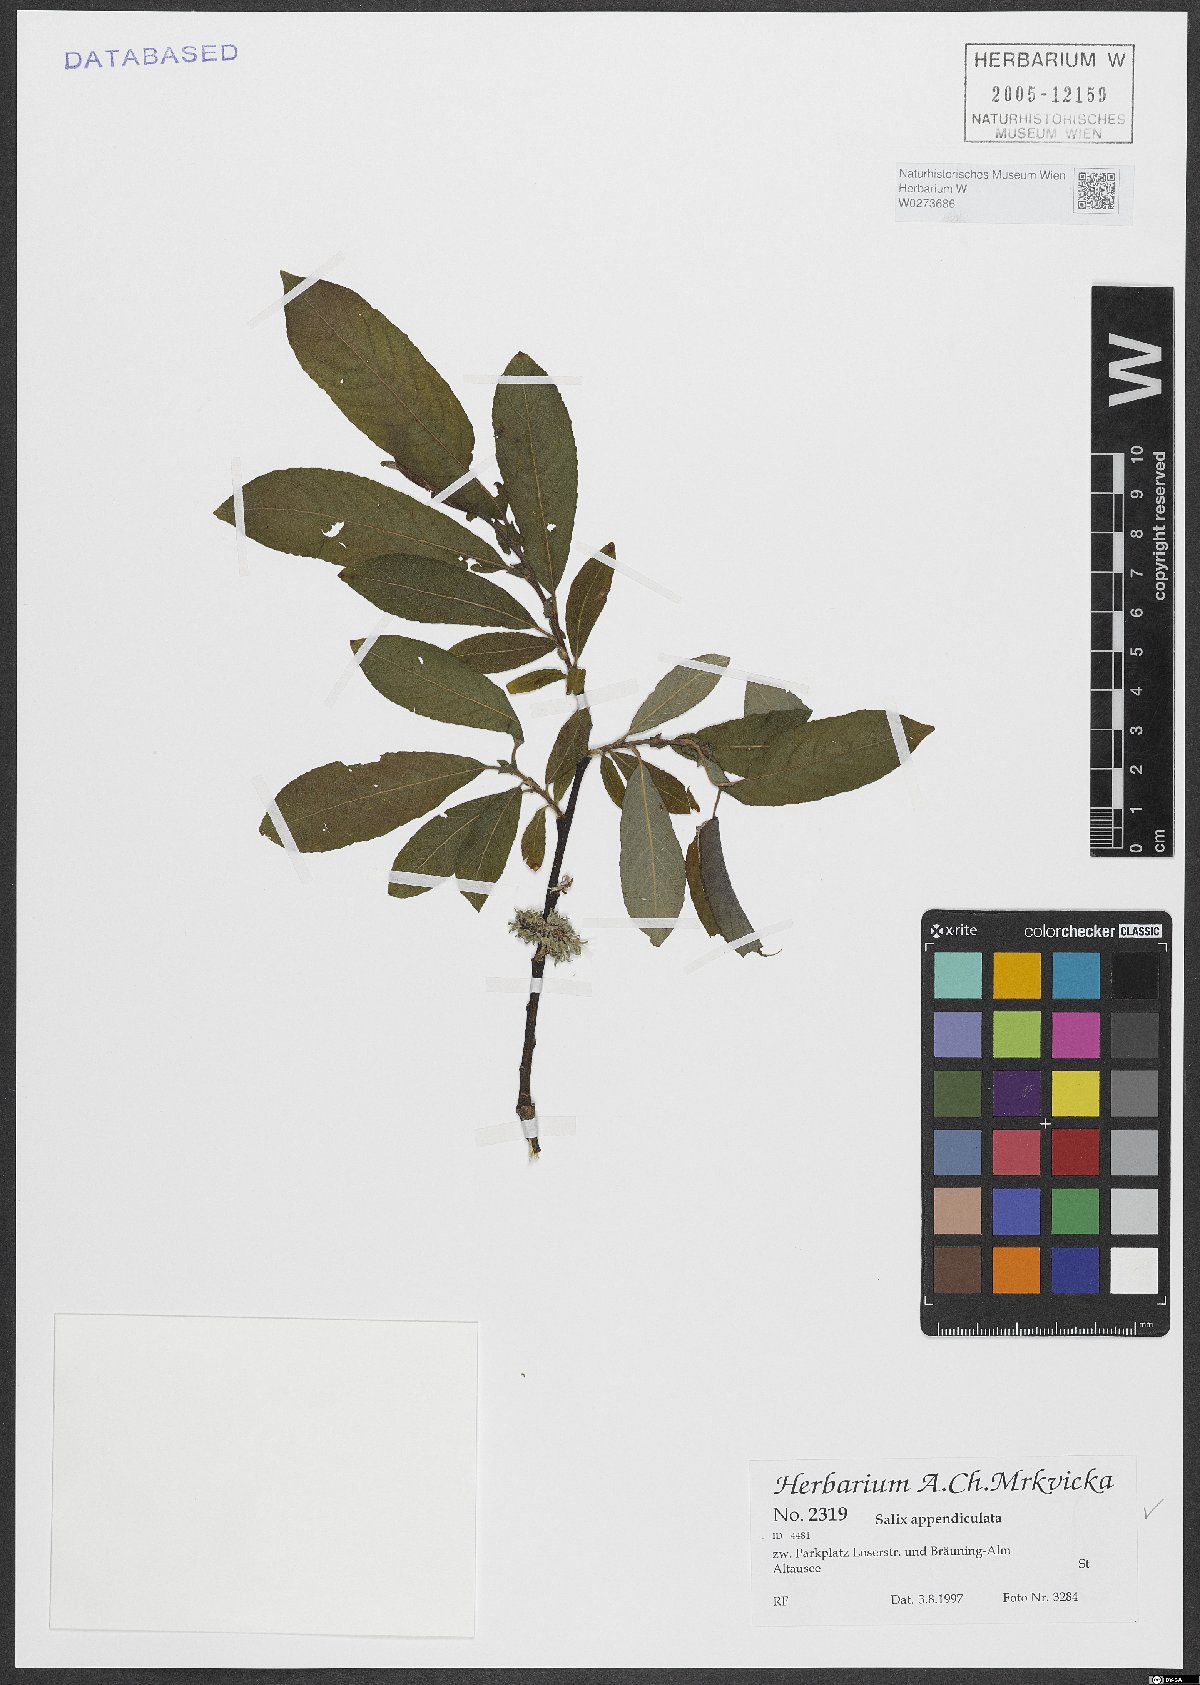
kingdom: Plantae
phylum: Tracheophyta
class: Magnoliopsida
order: Malpighiales
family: Salicaceae
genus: Salix
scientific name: Salix appendiculata
